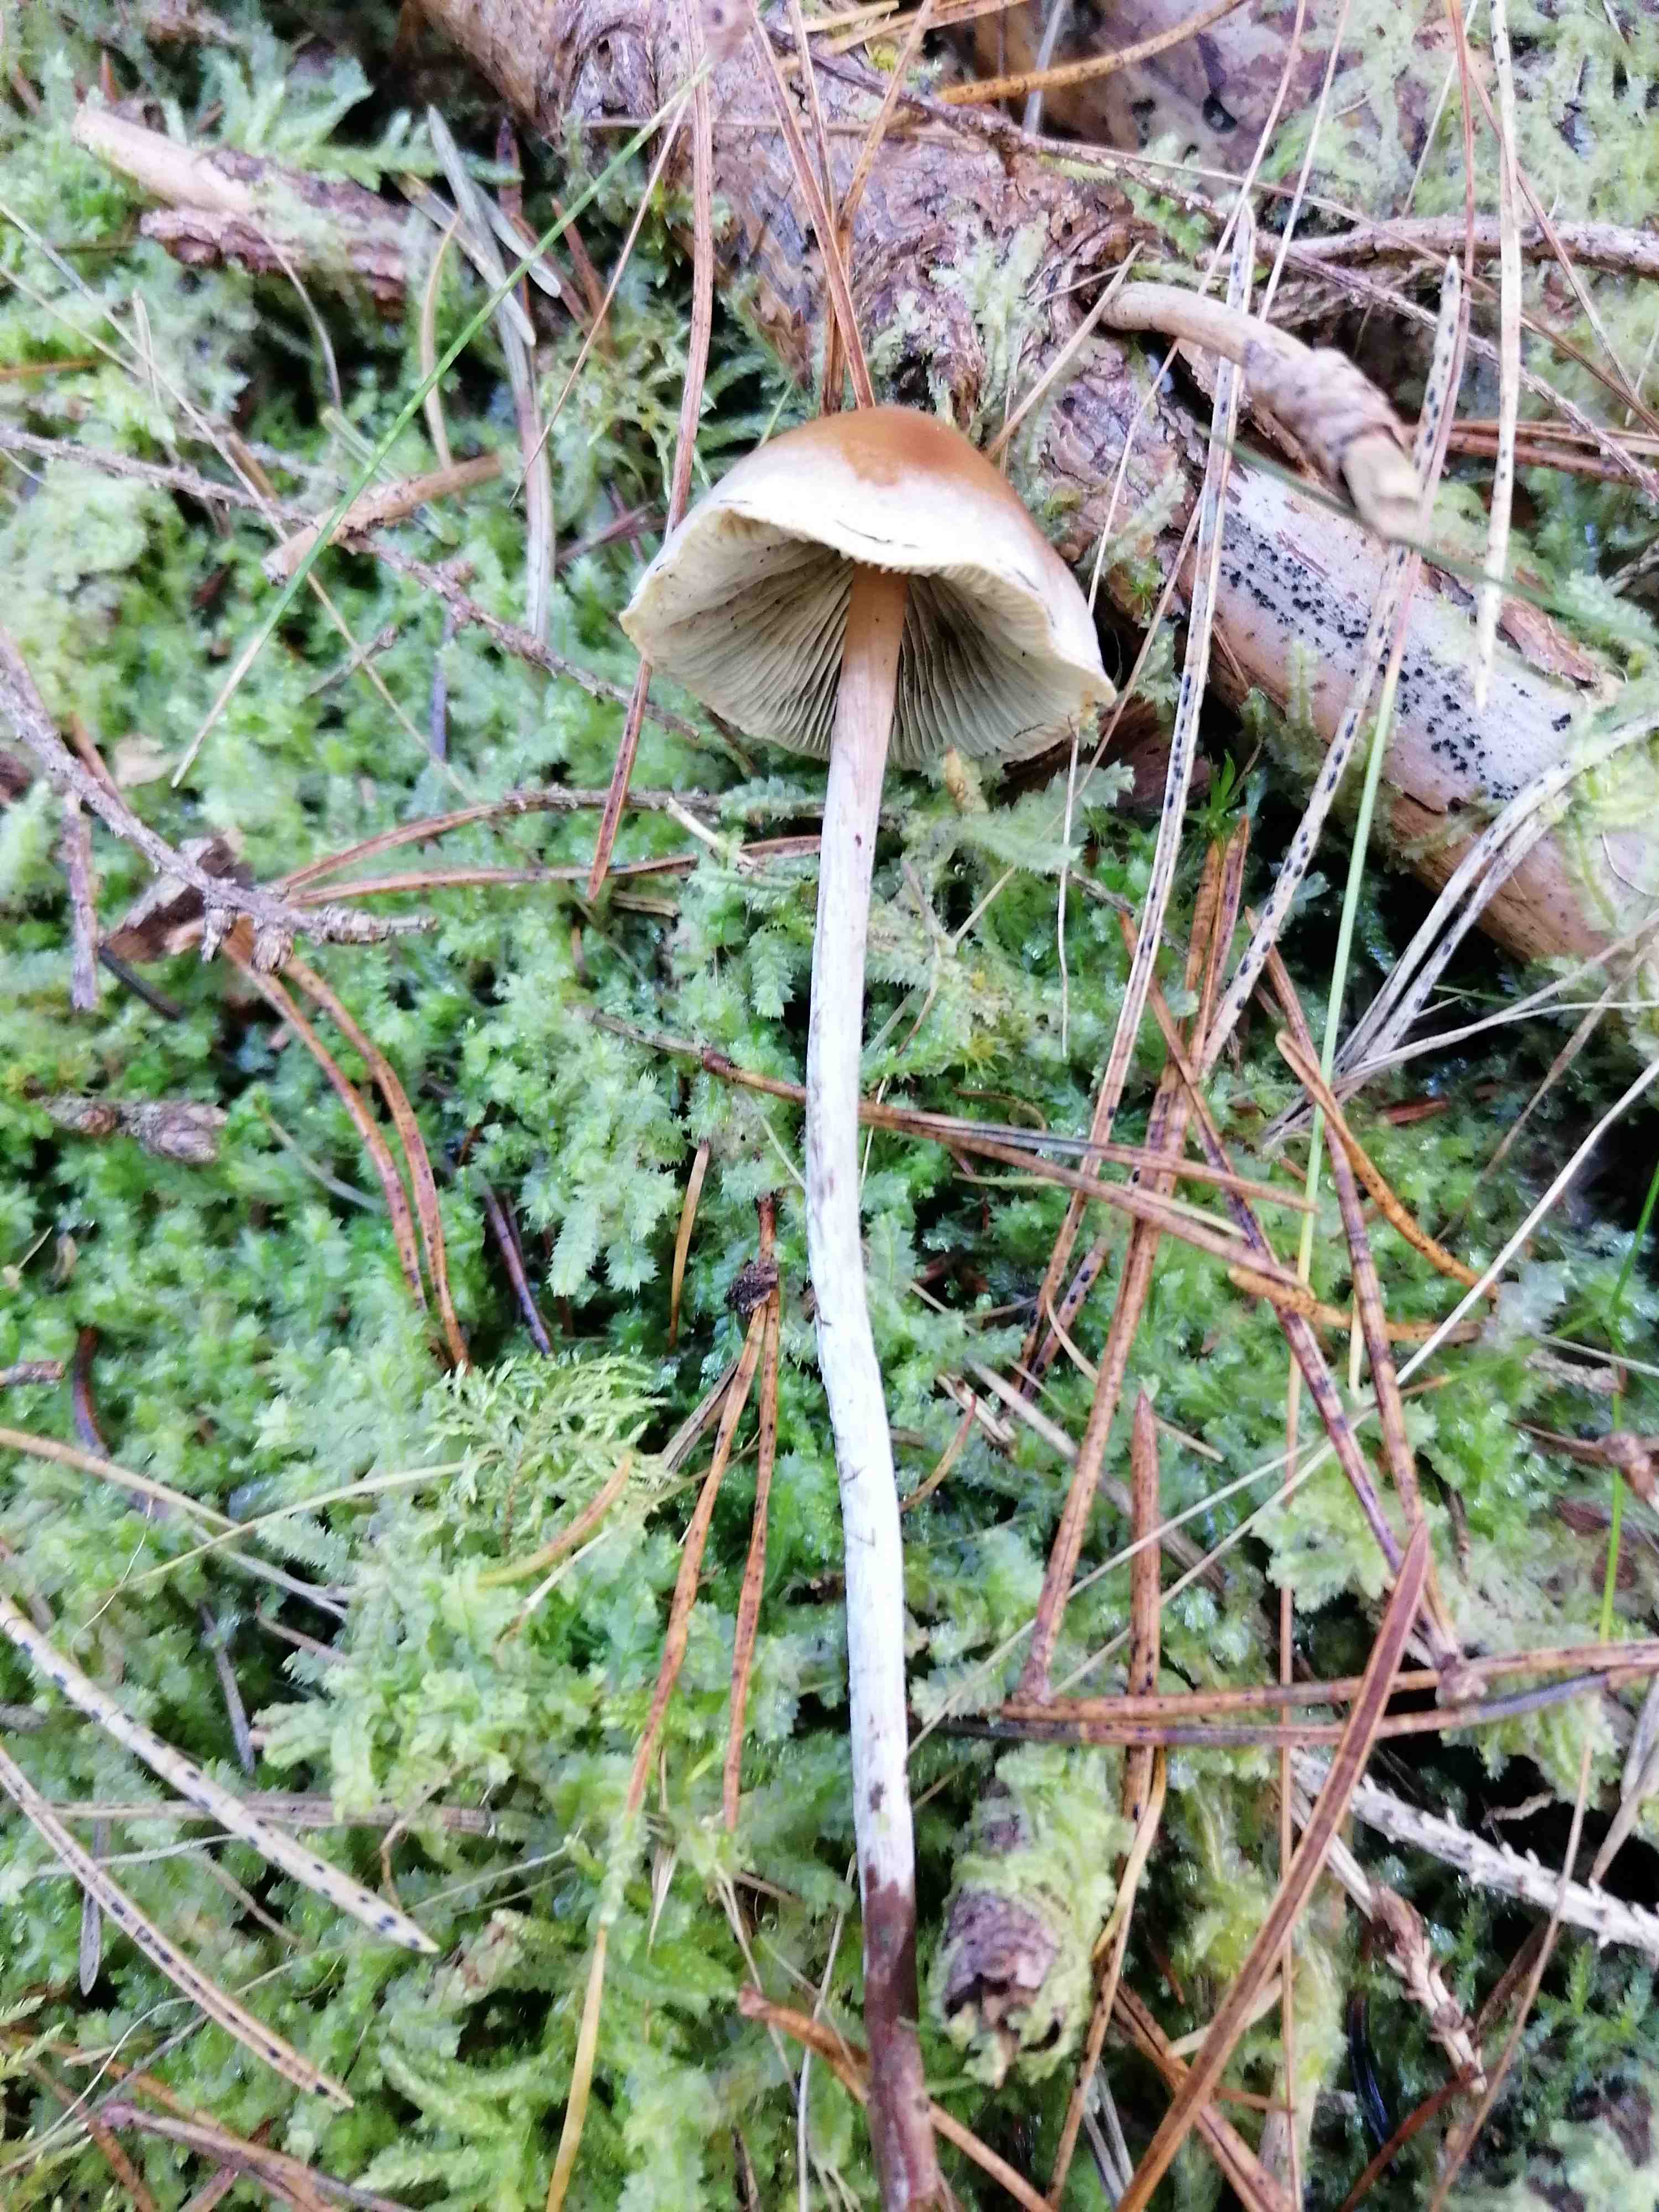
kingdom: Fungi
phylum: Basidiomycota
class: Agaricomycetes
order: Agaricales
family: Strophariaceae
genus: Hypholoma
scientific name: Hypholoma marginatum
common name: enlig svovlhat
